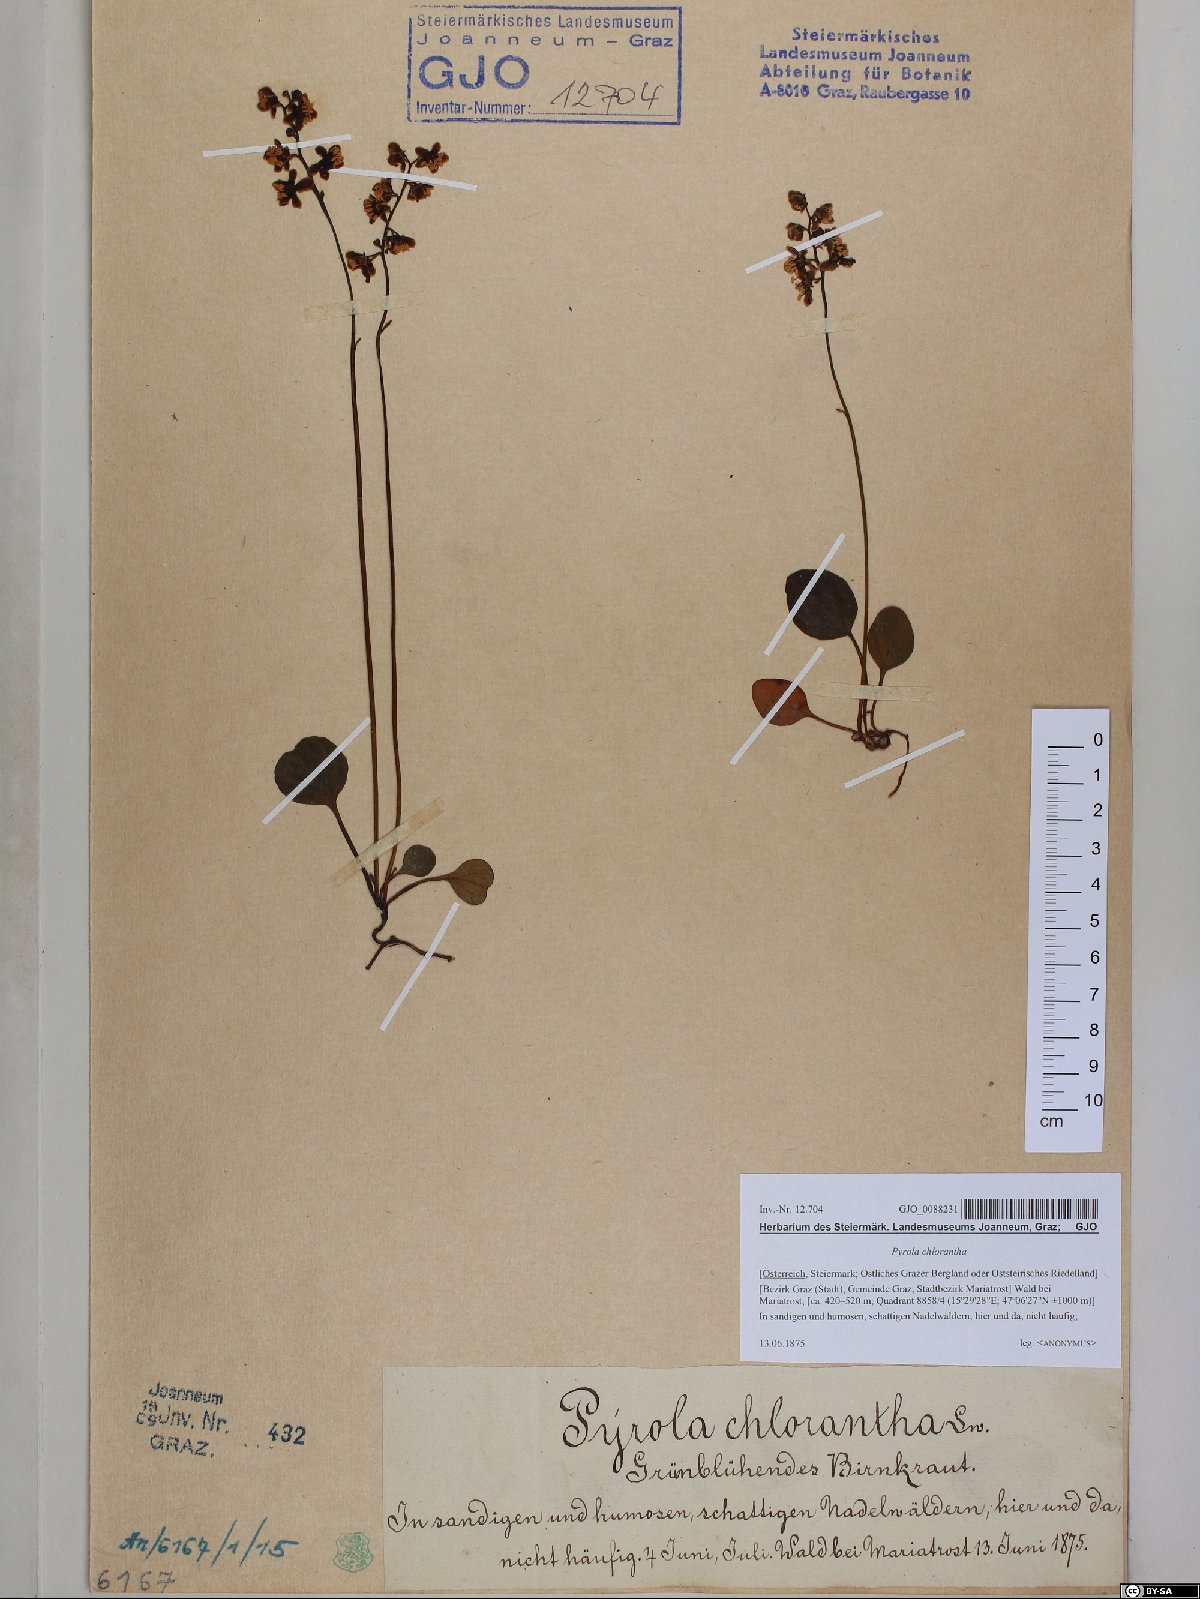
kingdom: Plantae
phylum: Tracheophyta
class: Magnoliopsida
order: Ericales
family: Ericaceae
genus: Pyrola
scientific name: Pyrola chlorantha
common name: Green wintergreen
